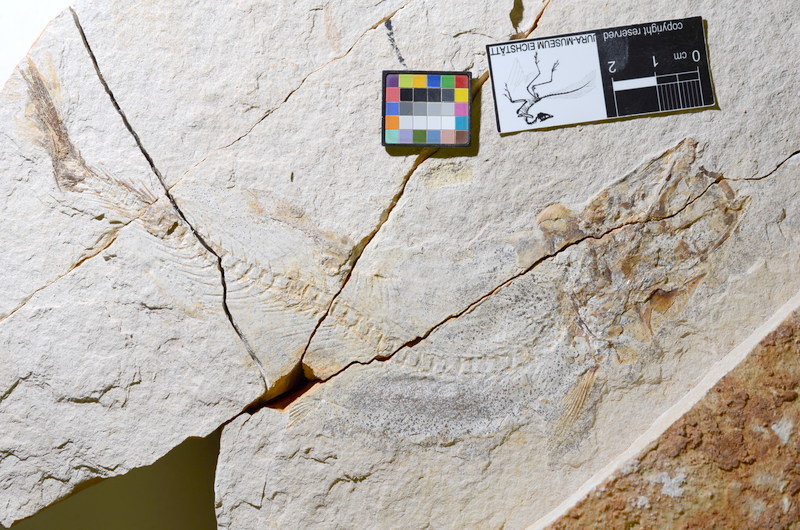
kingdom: Animalia
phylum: Chordata
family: Ascalaboidae
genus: Tharsis
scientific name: Tharsis dubius
